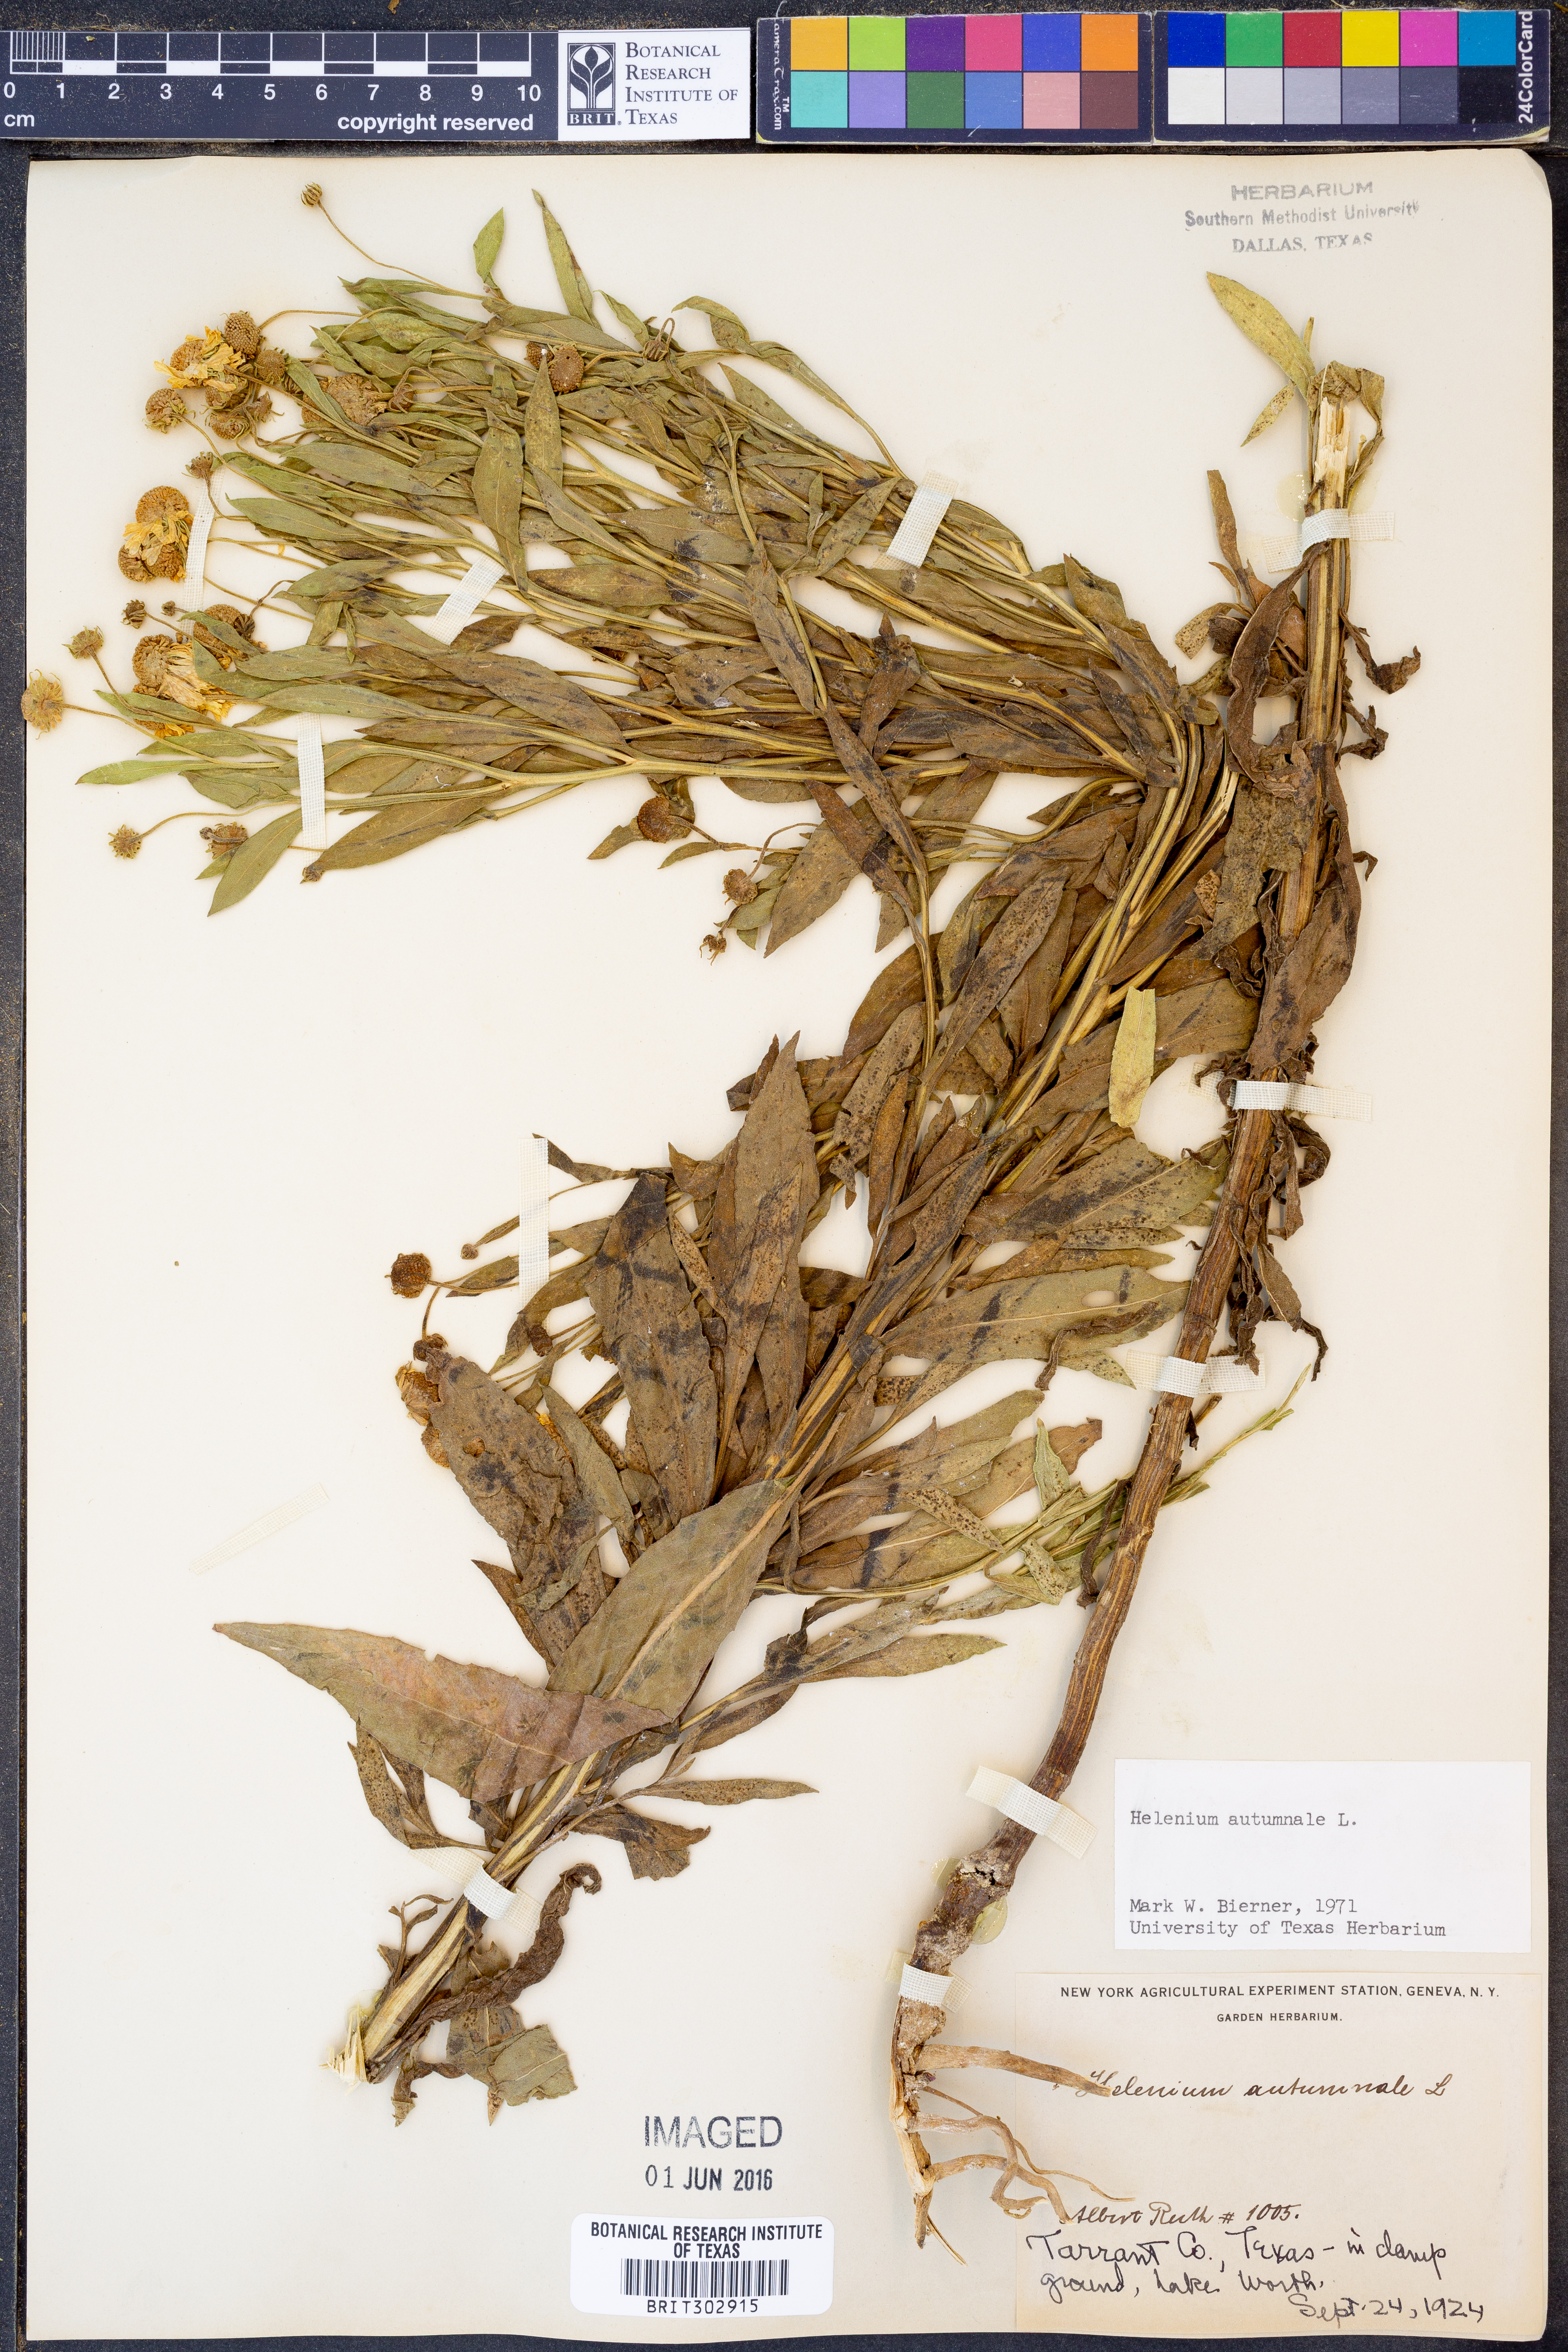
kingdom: Plantae
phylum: Tracheophyta
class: Magnoliopsida
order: Asterales
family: Asteraceae
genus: Helenium
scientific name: Helenium autumnale
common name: Sneezeweed
